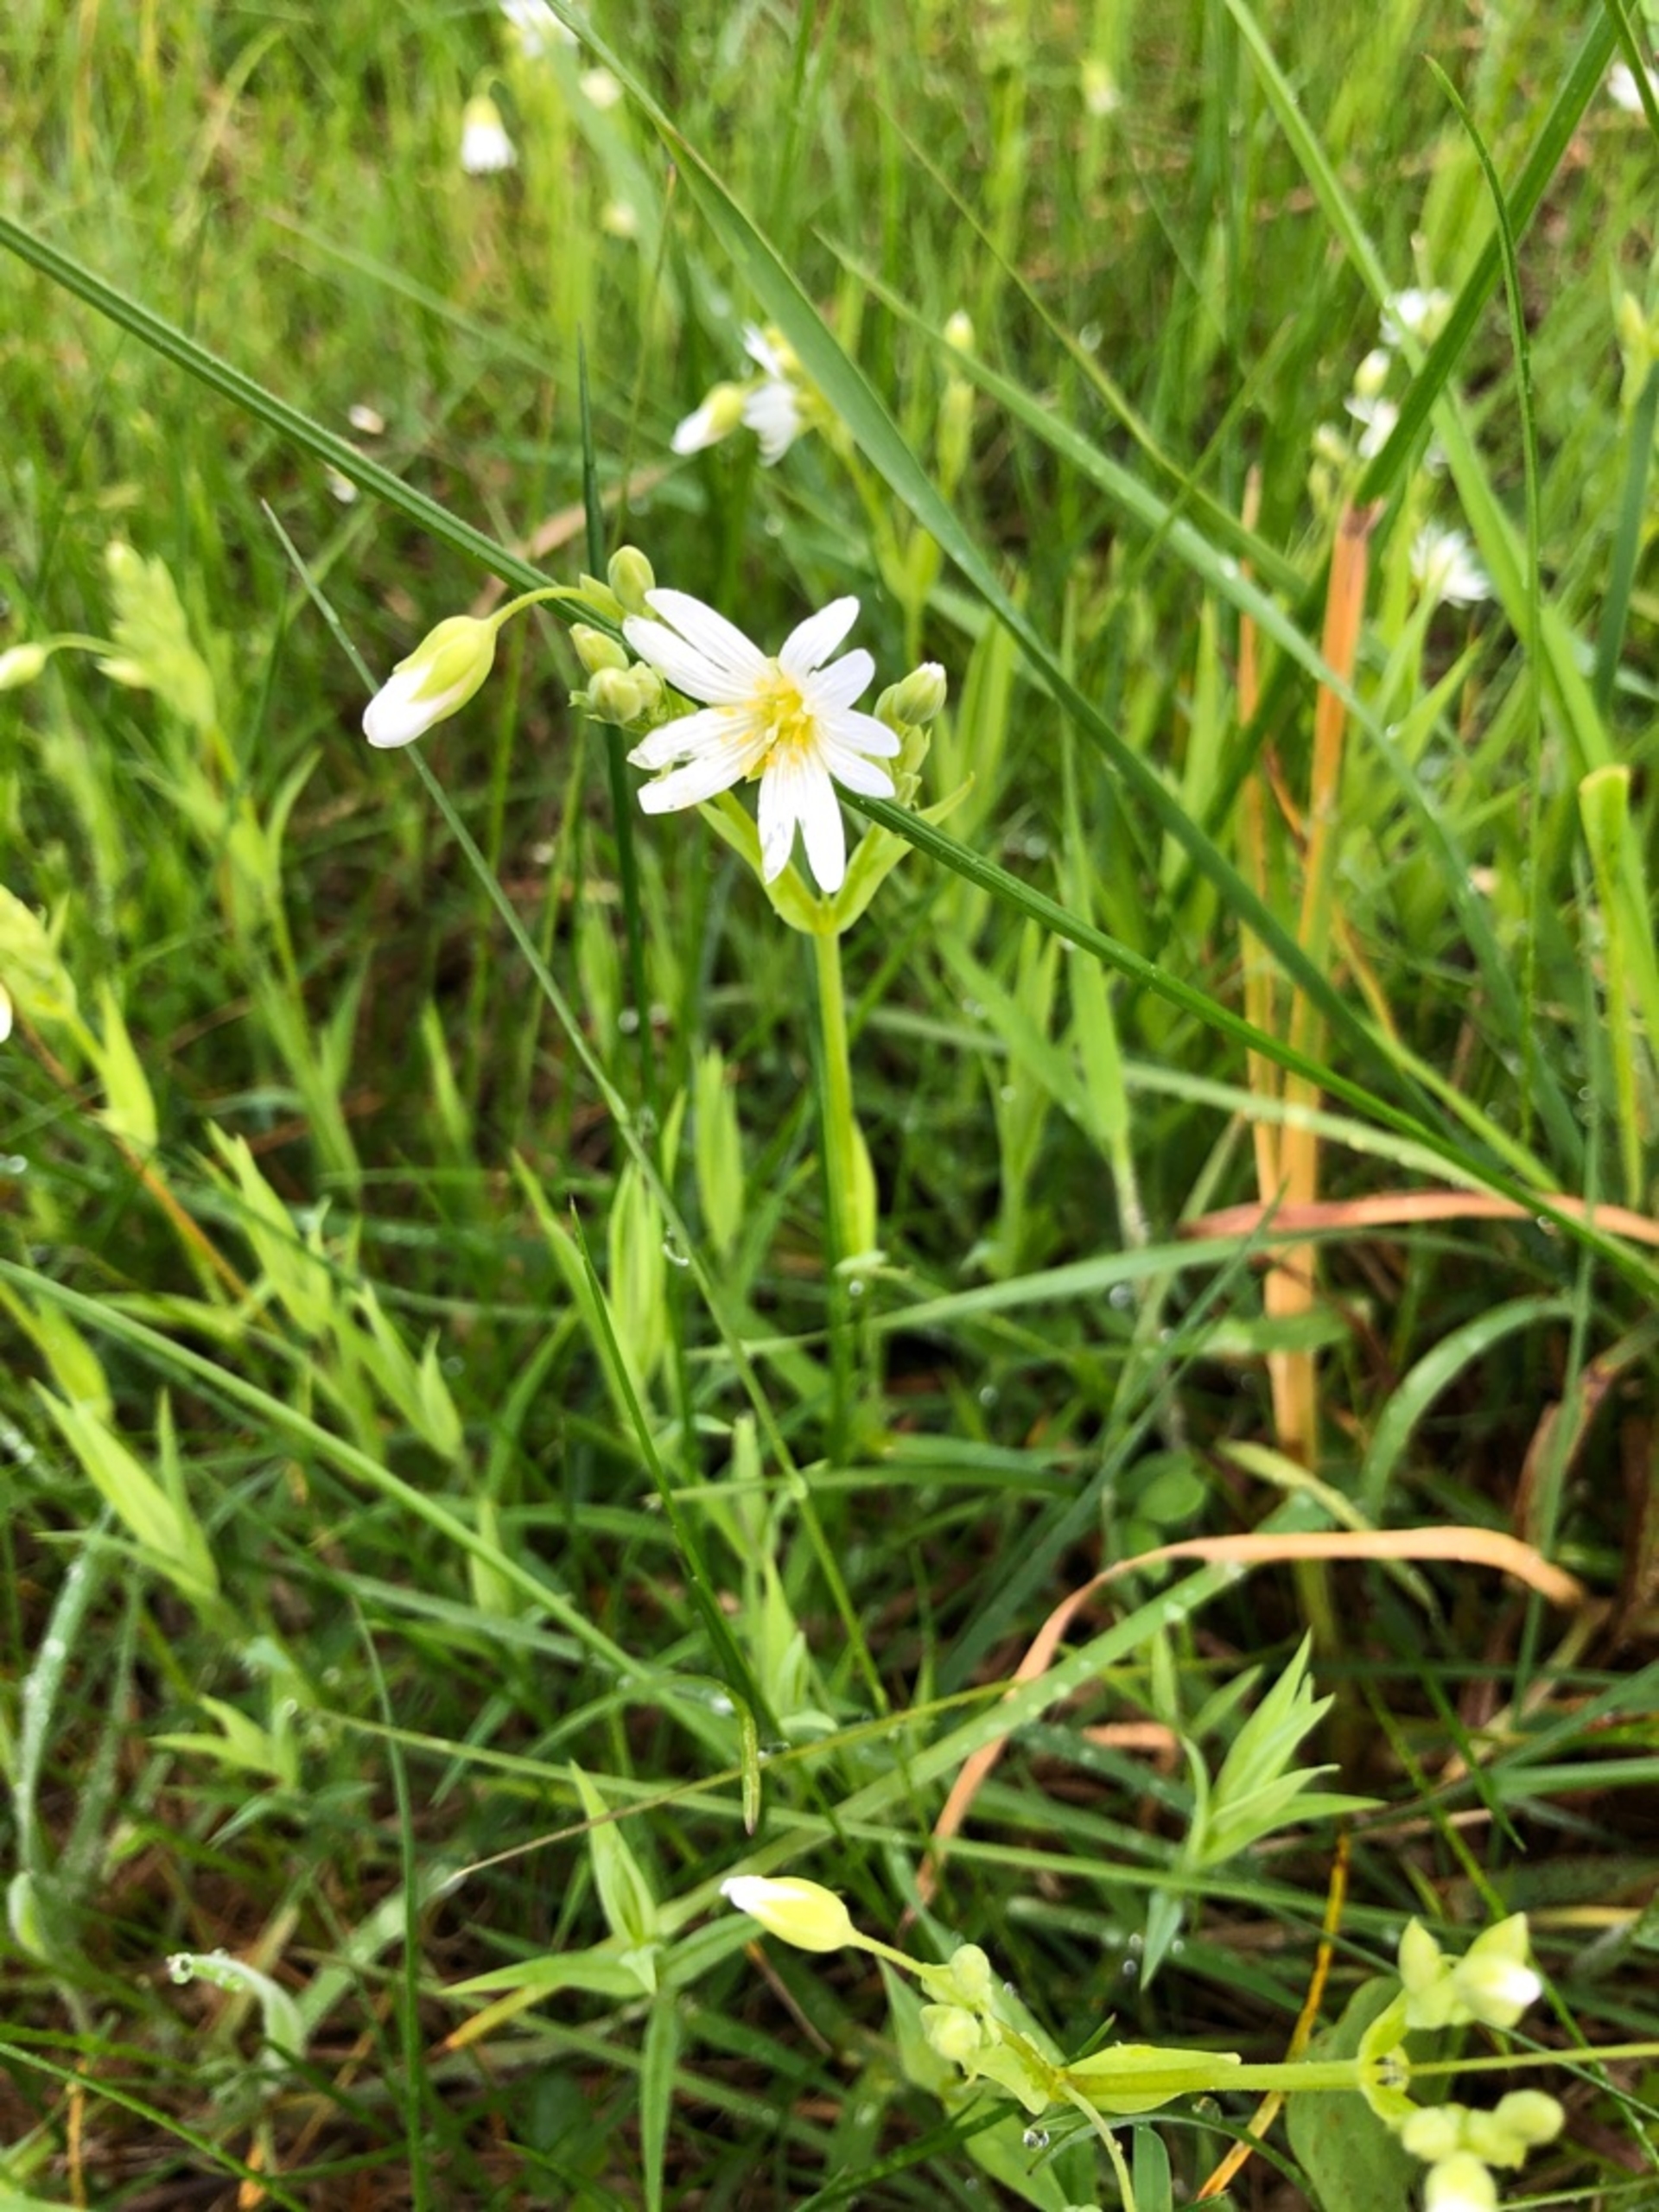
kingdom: Plantae
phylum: Tracheophyta
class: Magnoliopsida
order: Caryophyllales
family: Caryophyllaceae
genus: Rabelera
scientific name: Rabelera holostea
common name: Stor fladstjerne
